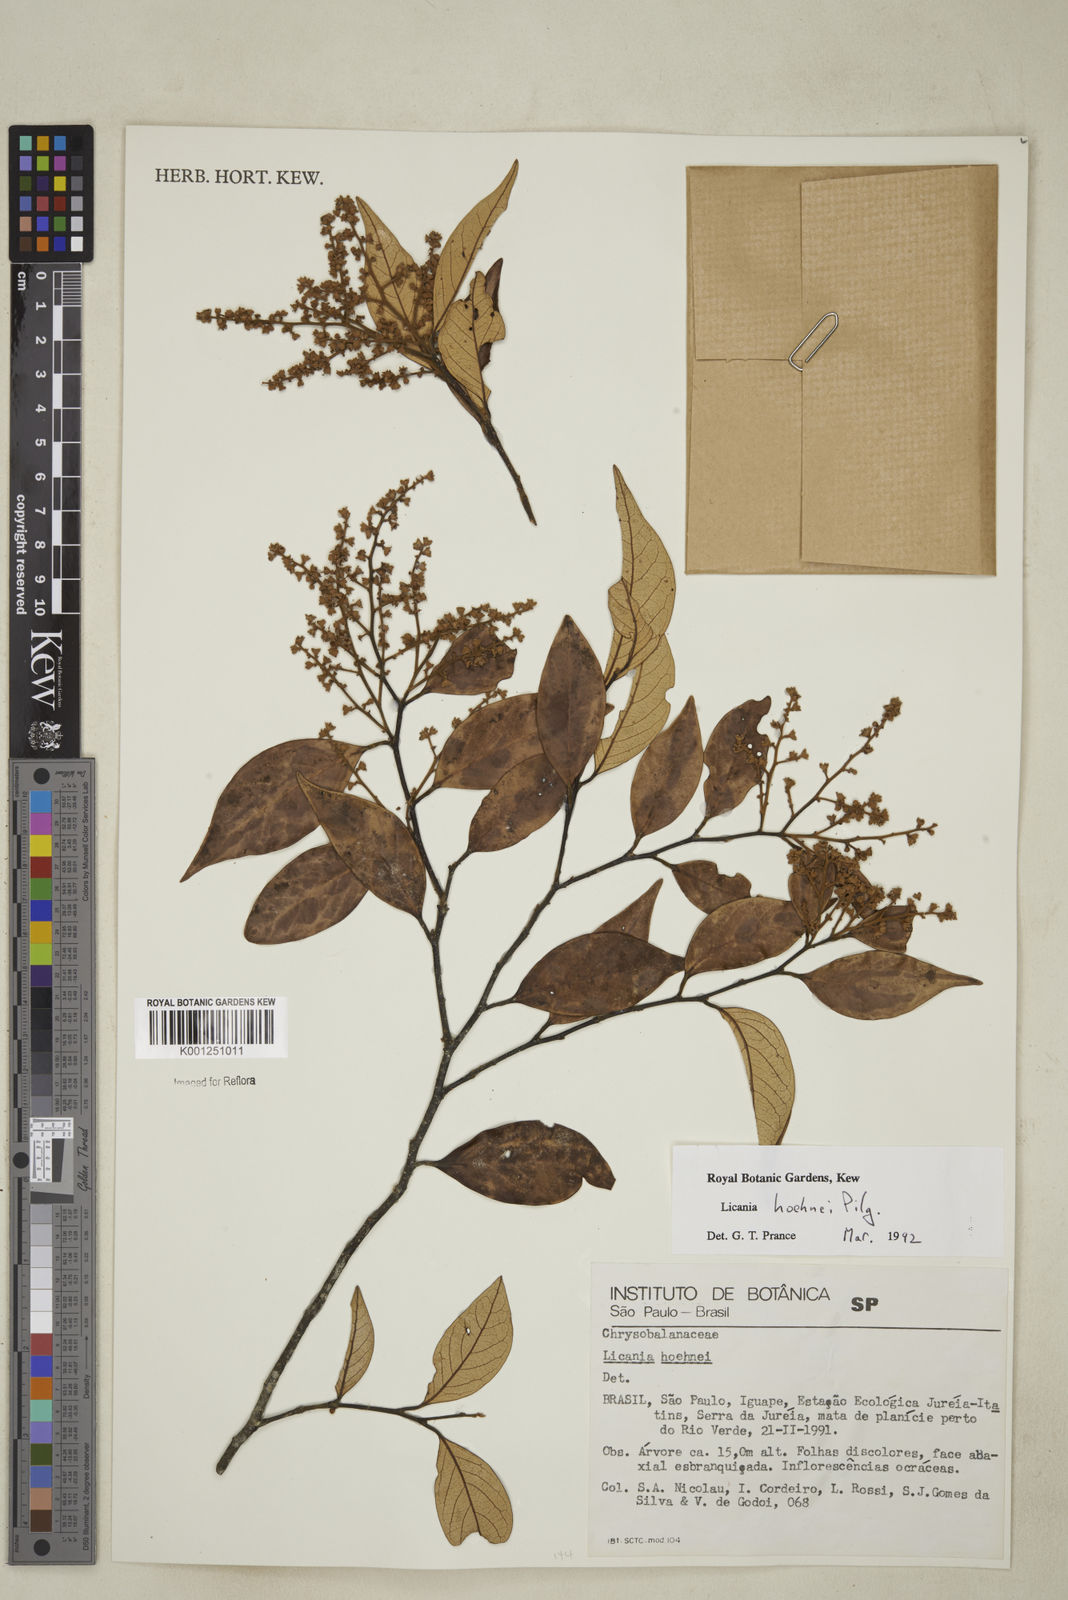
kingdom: Plantae
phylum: Tracheophyta
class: Magnoliopsida
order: Malpighiales
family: Chrysobalanaceae
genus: Licania
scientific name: Licania indurata
